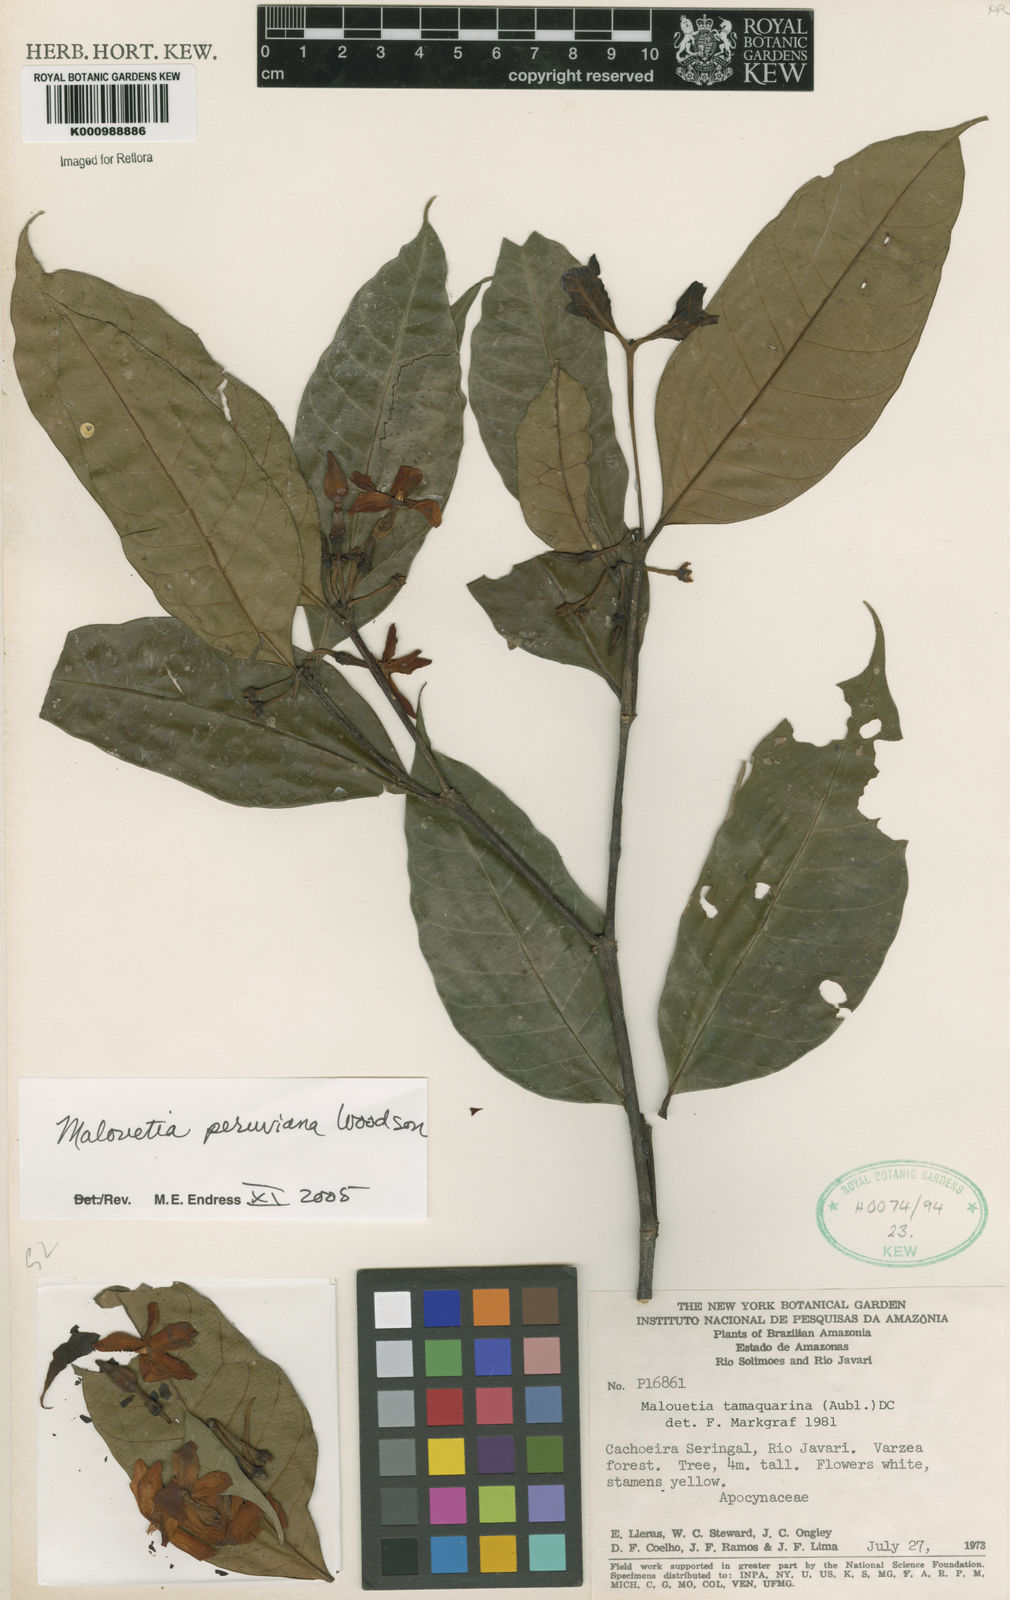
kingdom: Plantae
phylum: Tracheophyta
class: Magnoliopsida
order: Gentianales
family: Apocynaceae
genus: Malouetia
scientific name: Malouetia tamaquarina
